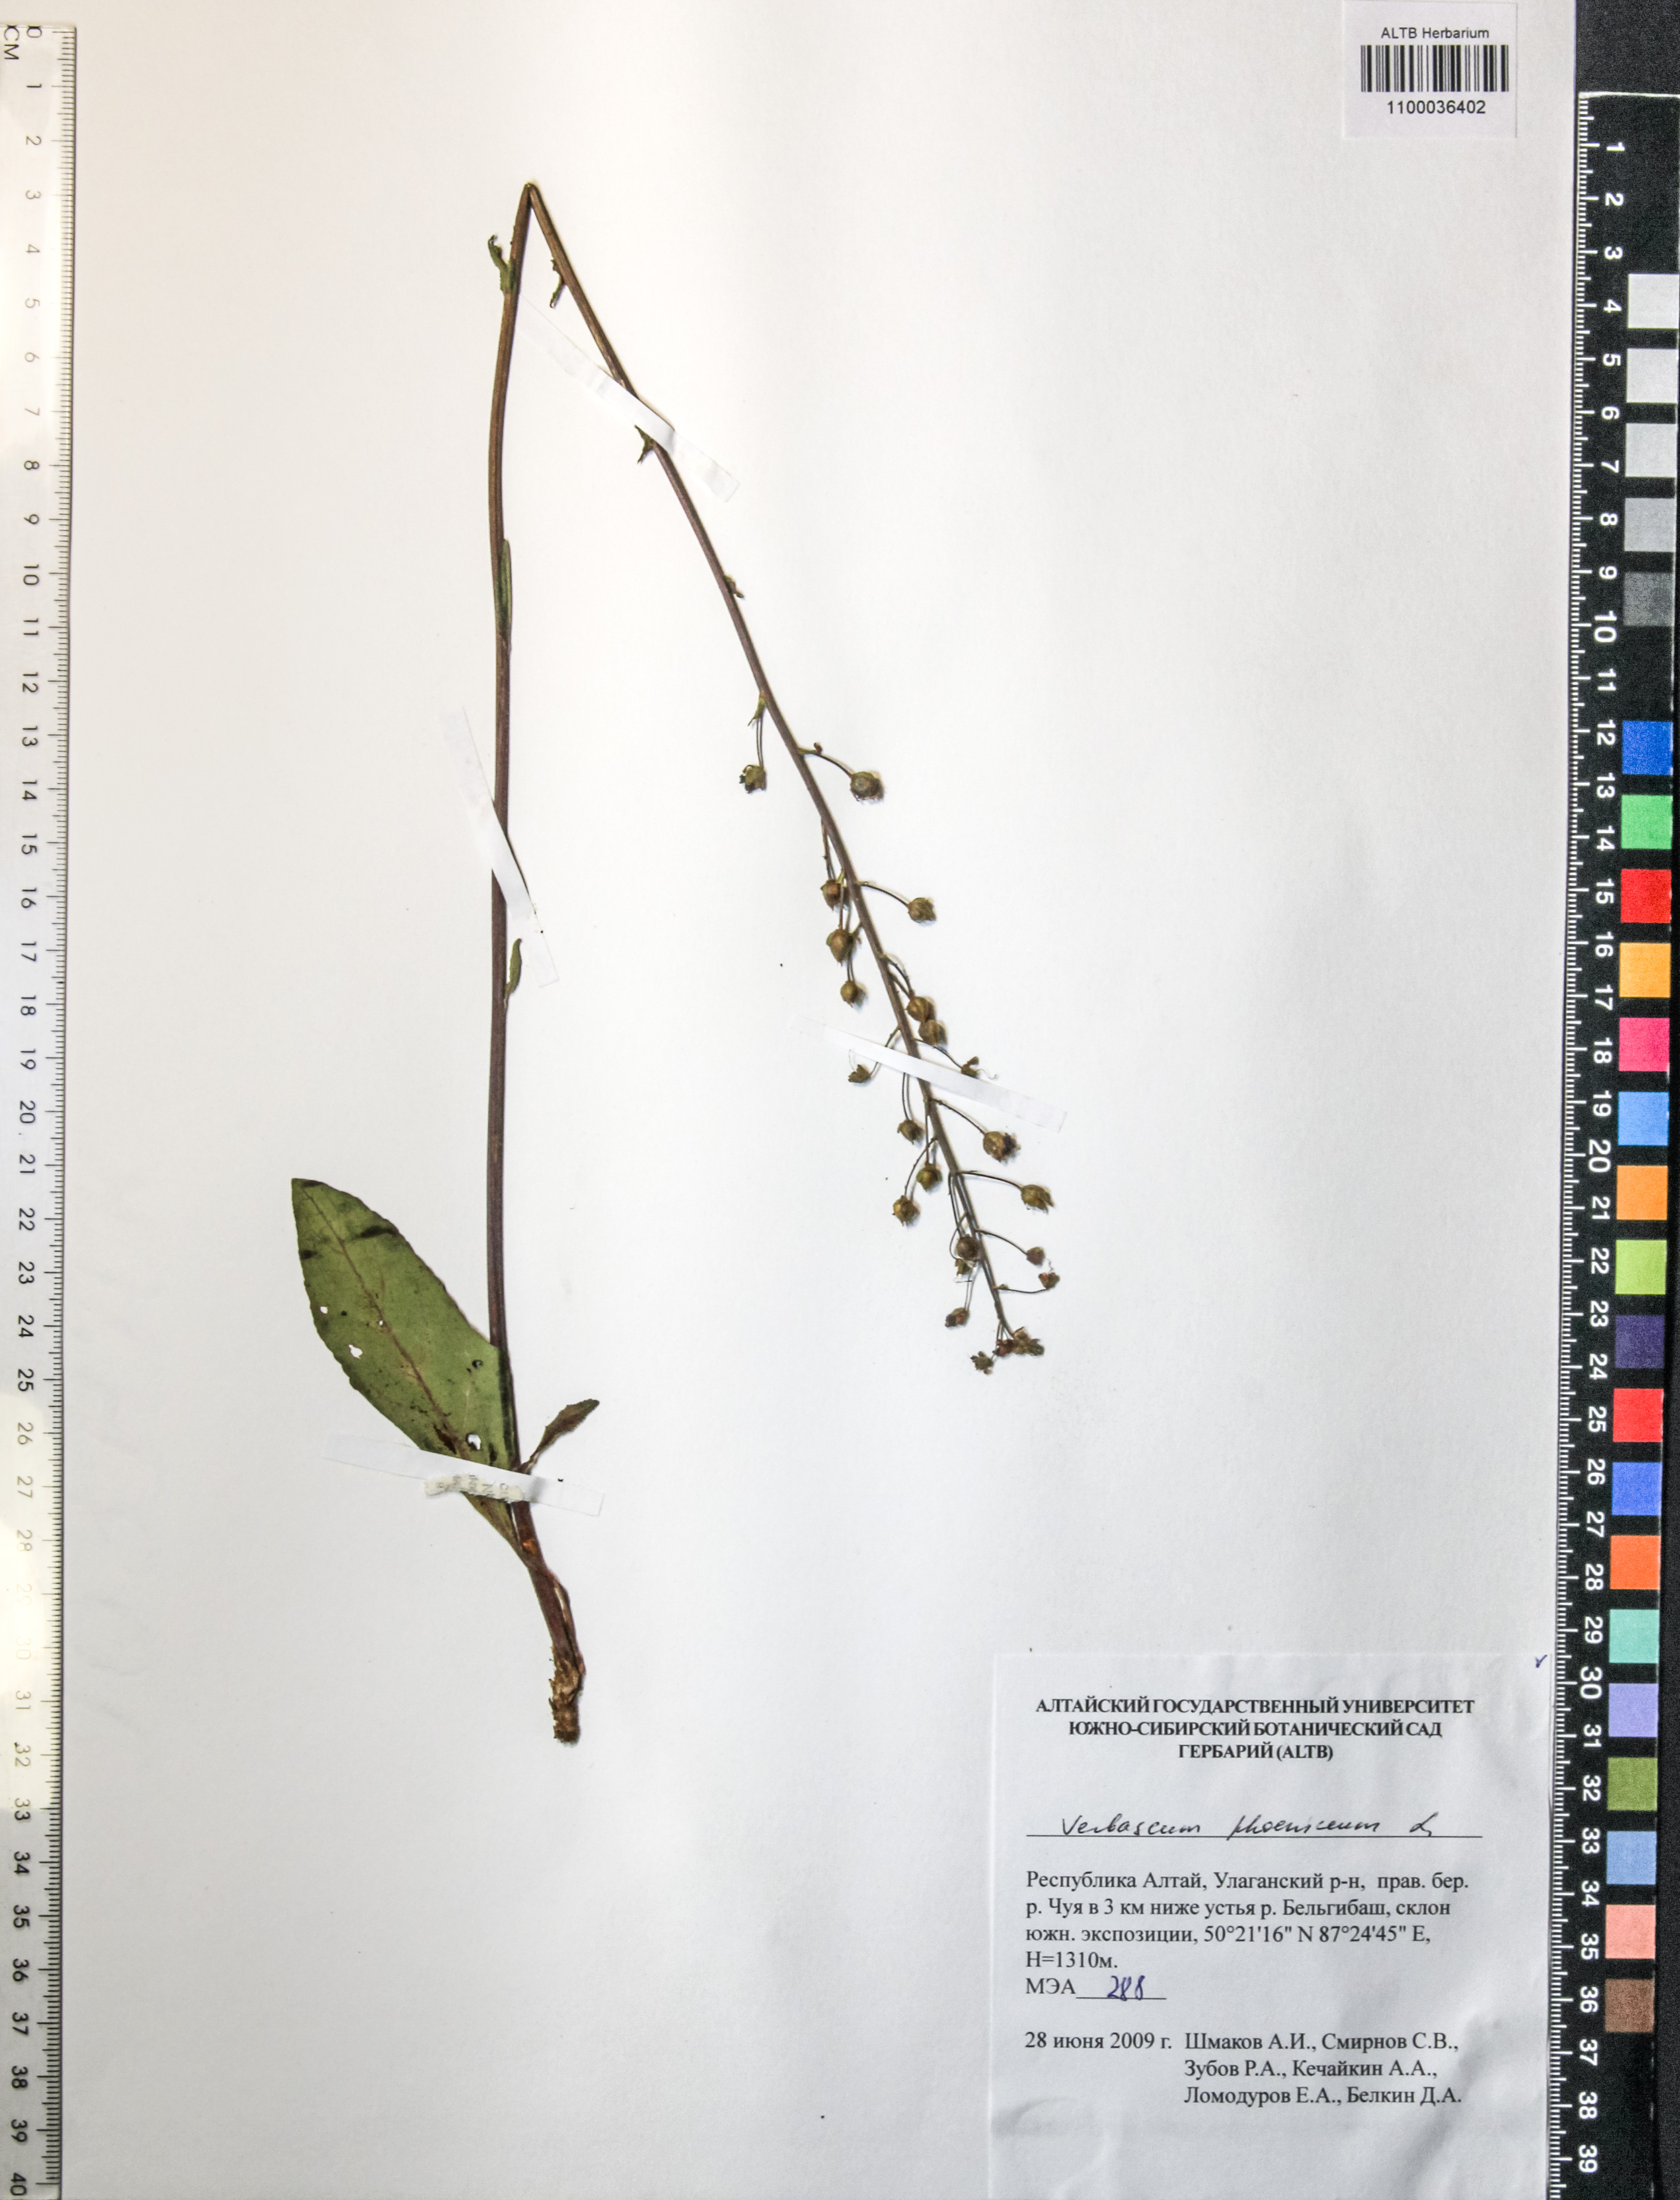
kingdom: Plantae
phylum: Tracheophyta
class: Magnoliopsida
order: Lamiales
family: Scrophulariaceae
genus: Verbascum
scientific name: Verbascum phoeniceum
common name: Purple mullein
